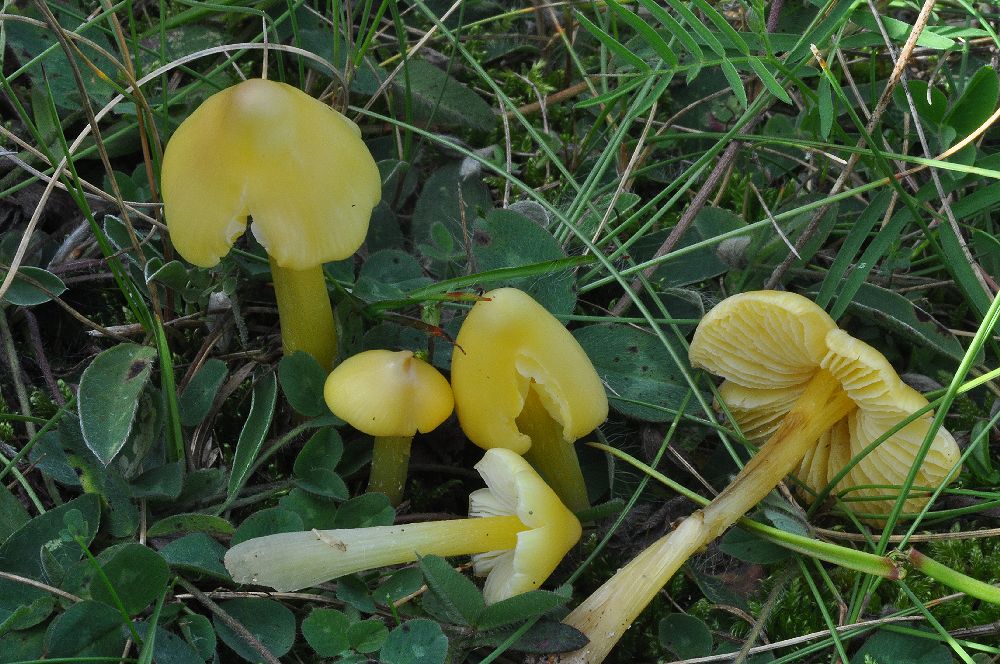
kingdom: Fungi
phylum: Basidiomycota
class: Agaricomycetes
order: Agaricales
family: Hygrophoraceae
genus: Hygrocybe
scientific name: Hygrocybe acutoconica
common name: Konrads vokshat
